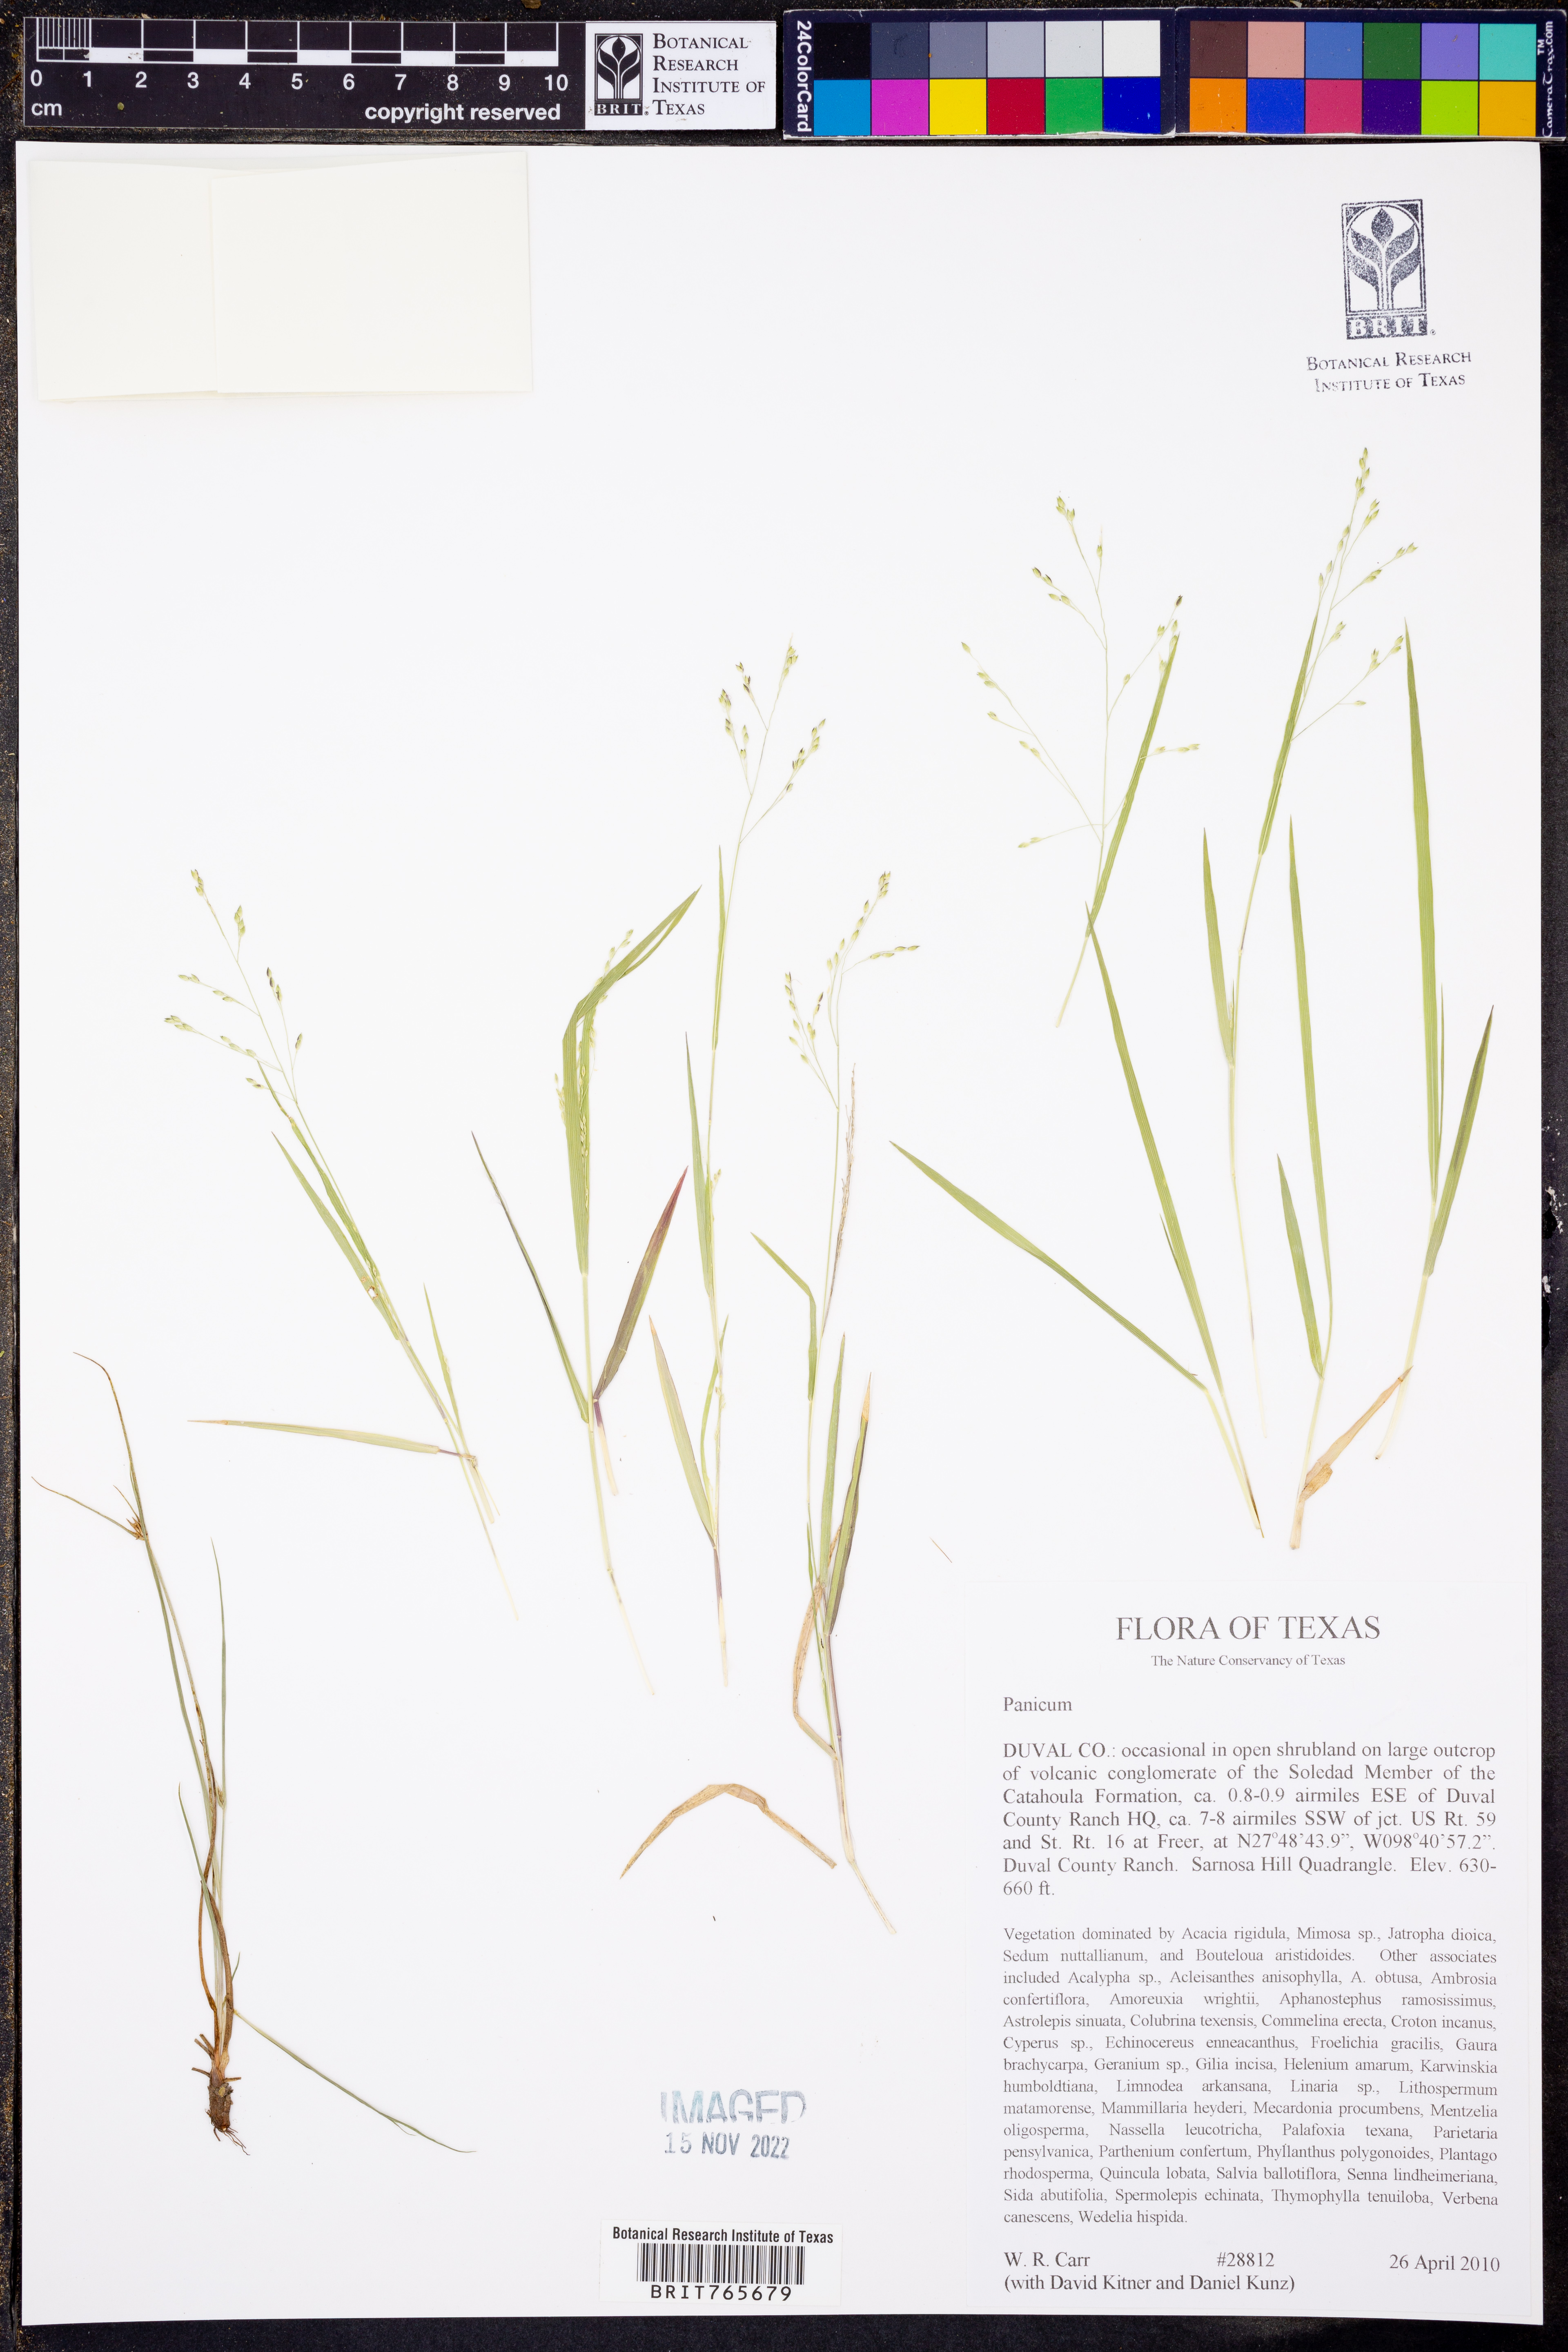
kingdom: Plantae
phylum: Tracheophyta
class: Liliopsida
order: Poales
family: Poaceae
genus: Panicum
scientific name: Panicum
